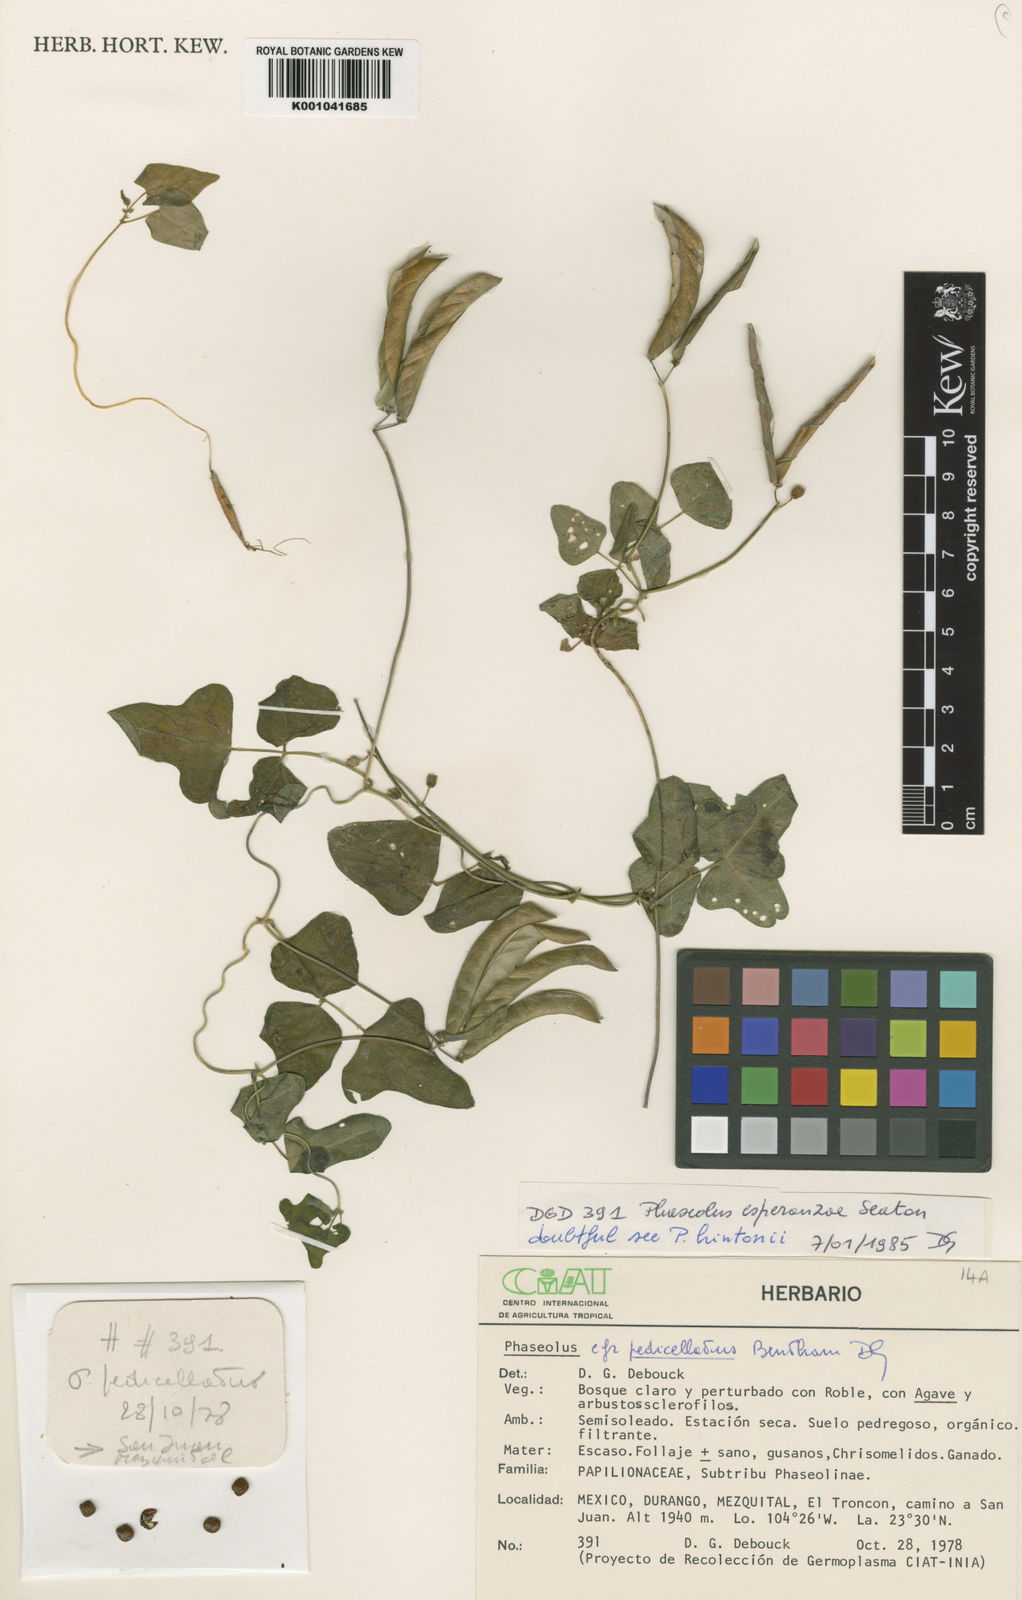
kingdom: Plantae
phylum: Tracheophyta
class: Magnoliopsida
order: Fabales
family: Fabaceae
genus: Phaseolus
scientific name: Phaseolus magnilobatus
